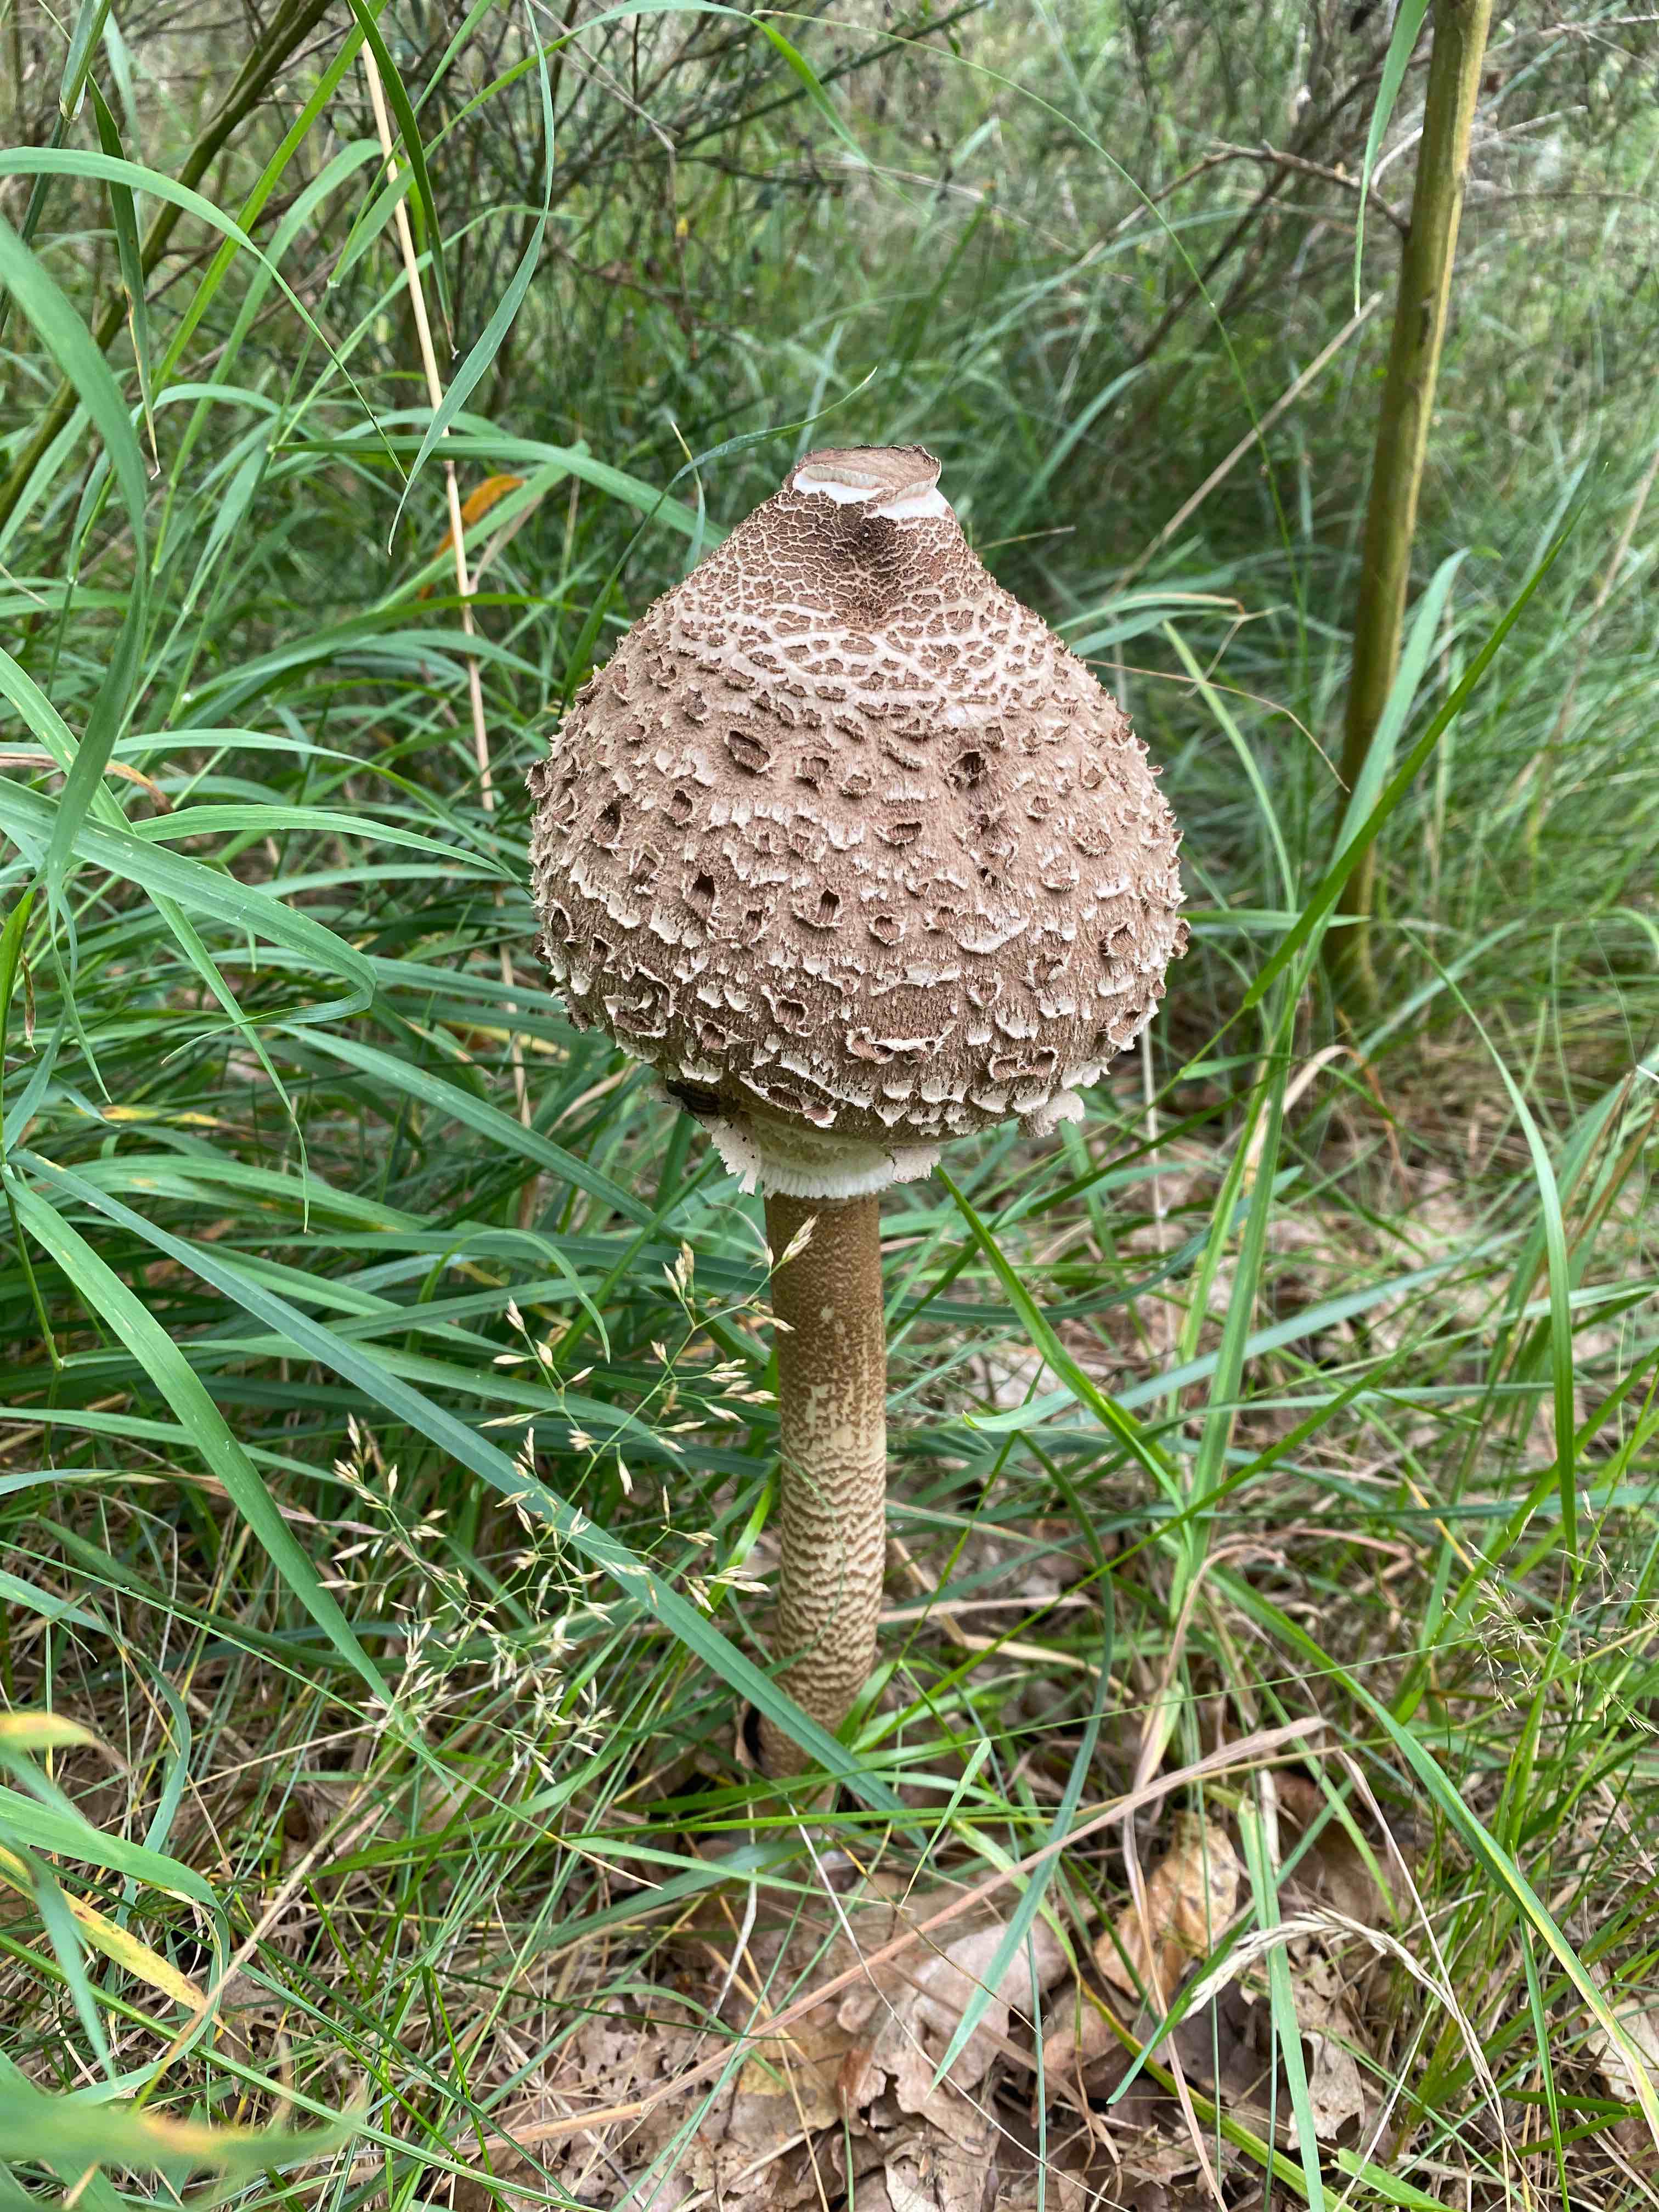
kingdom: Fungi
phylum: Basidiomycota
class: Agaricomycetes
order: Agaricales
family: Agaricaceae
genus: Macrolepiota
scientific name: Macrolepiota procera
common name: stor kæmpeparasolhat
